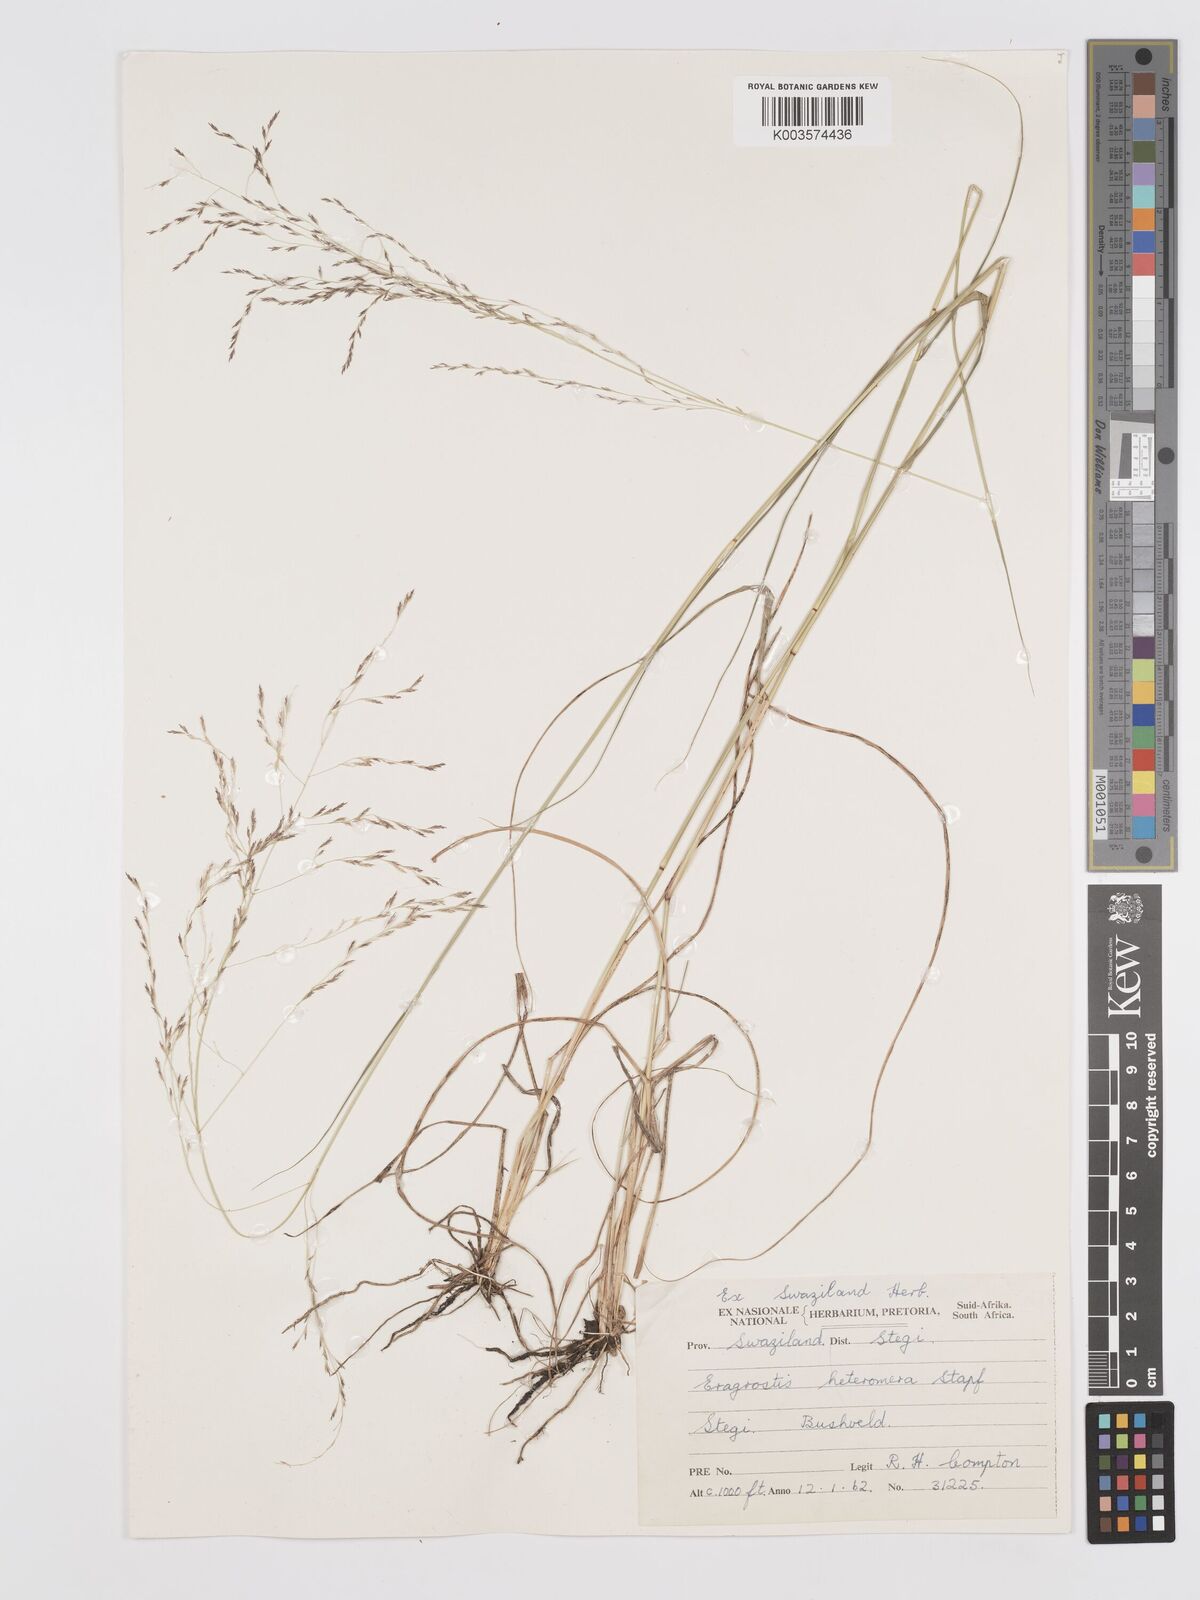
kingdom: Plantae
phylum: Tracheophyta
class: Liliopsida
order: Poales
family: Poaceae
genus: Eragrostis
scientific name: Eragrostis heteromera
